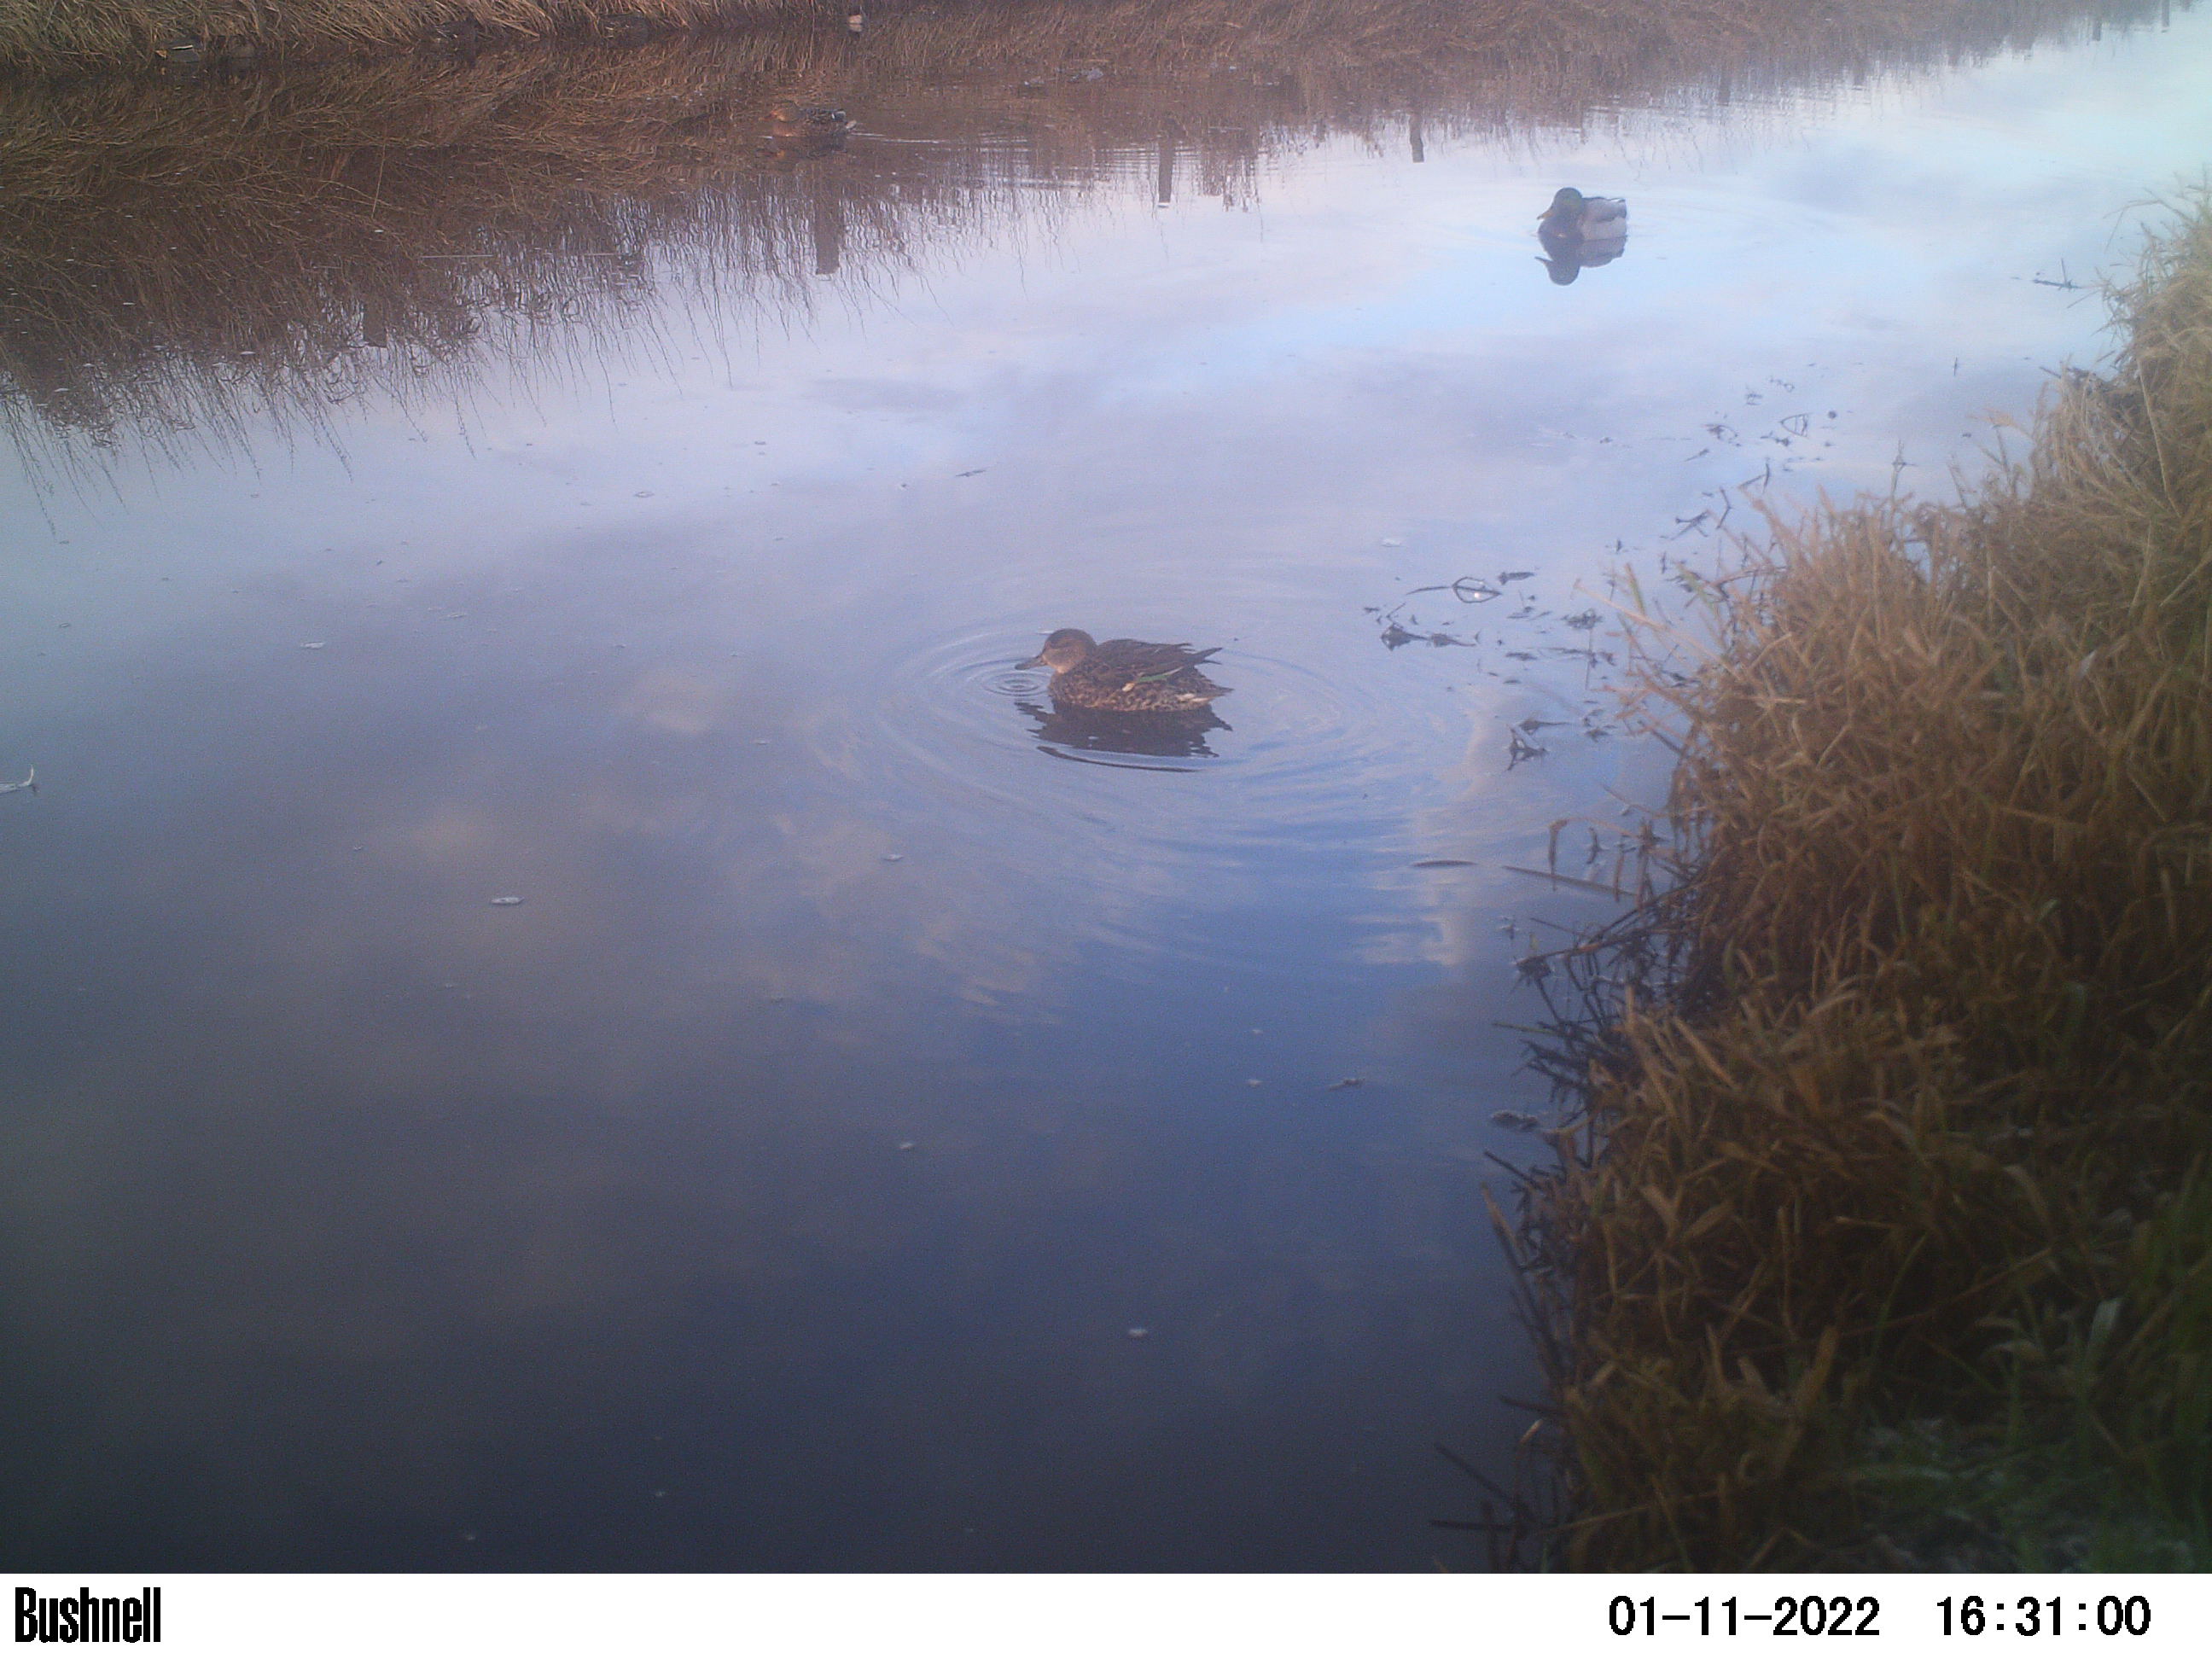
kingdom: Animalia
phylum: Chordata
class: Aves
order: Anseriformes
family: Anatidae
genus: Anas
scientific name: Anas
